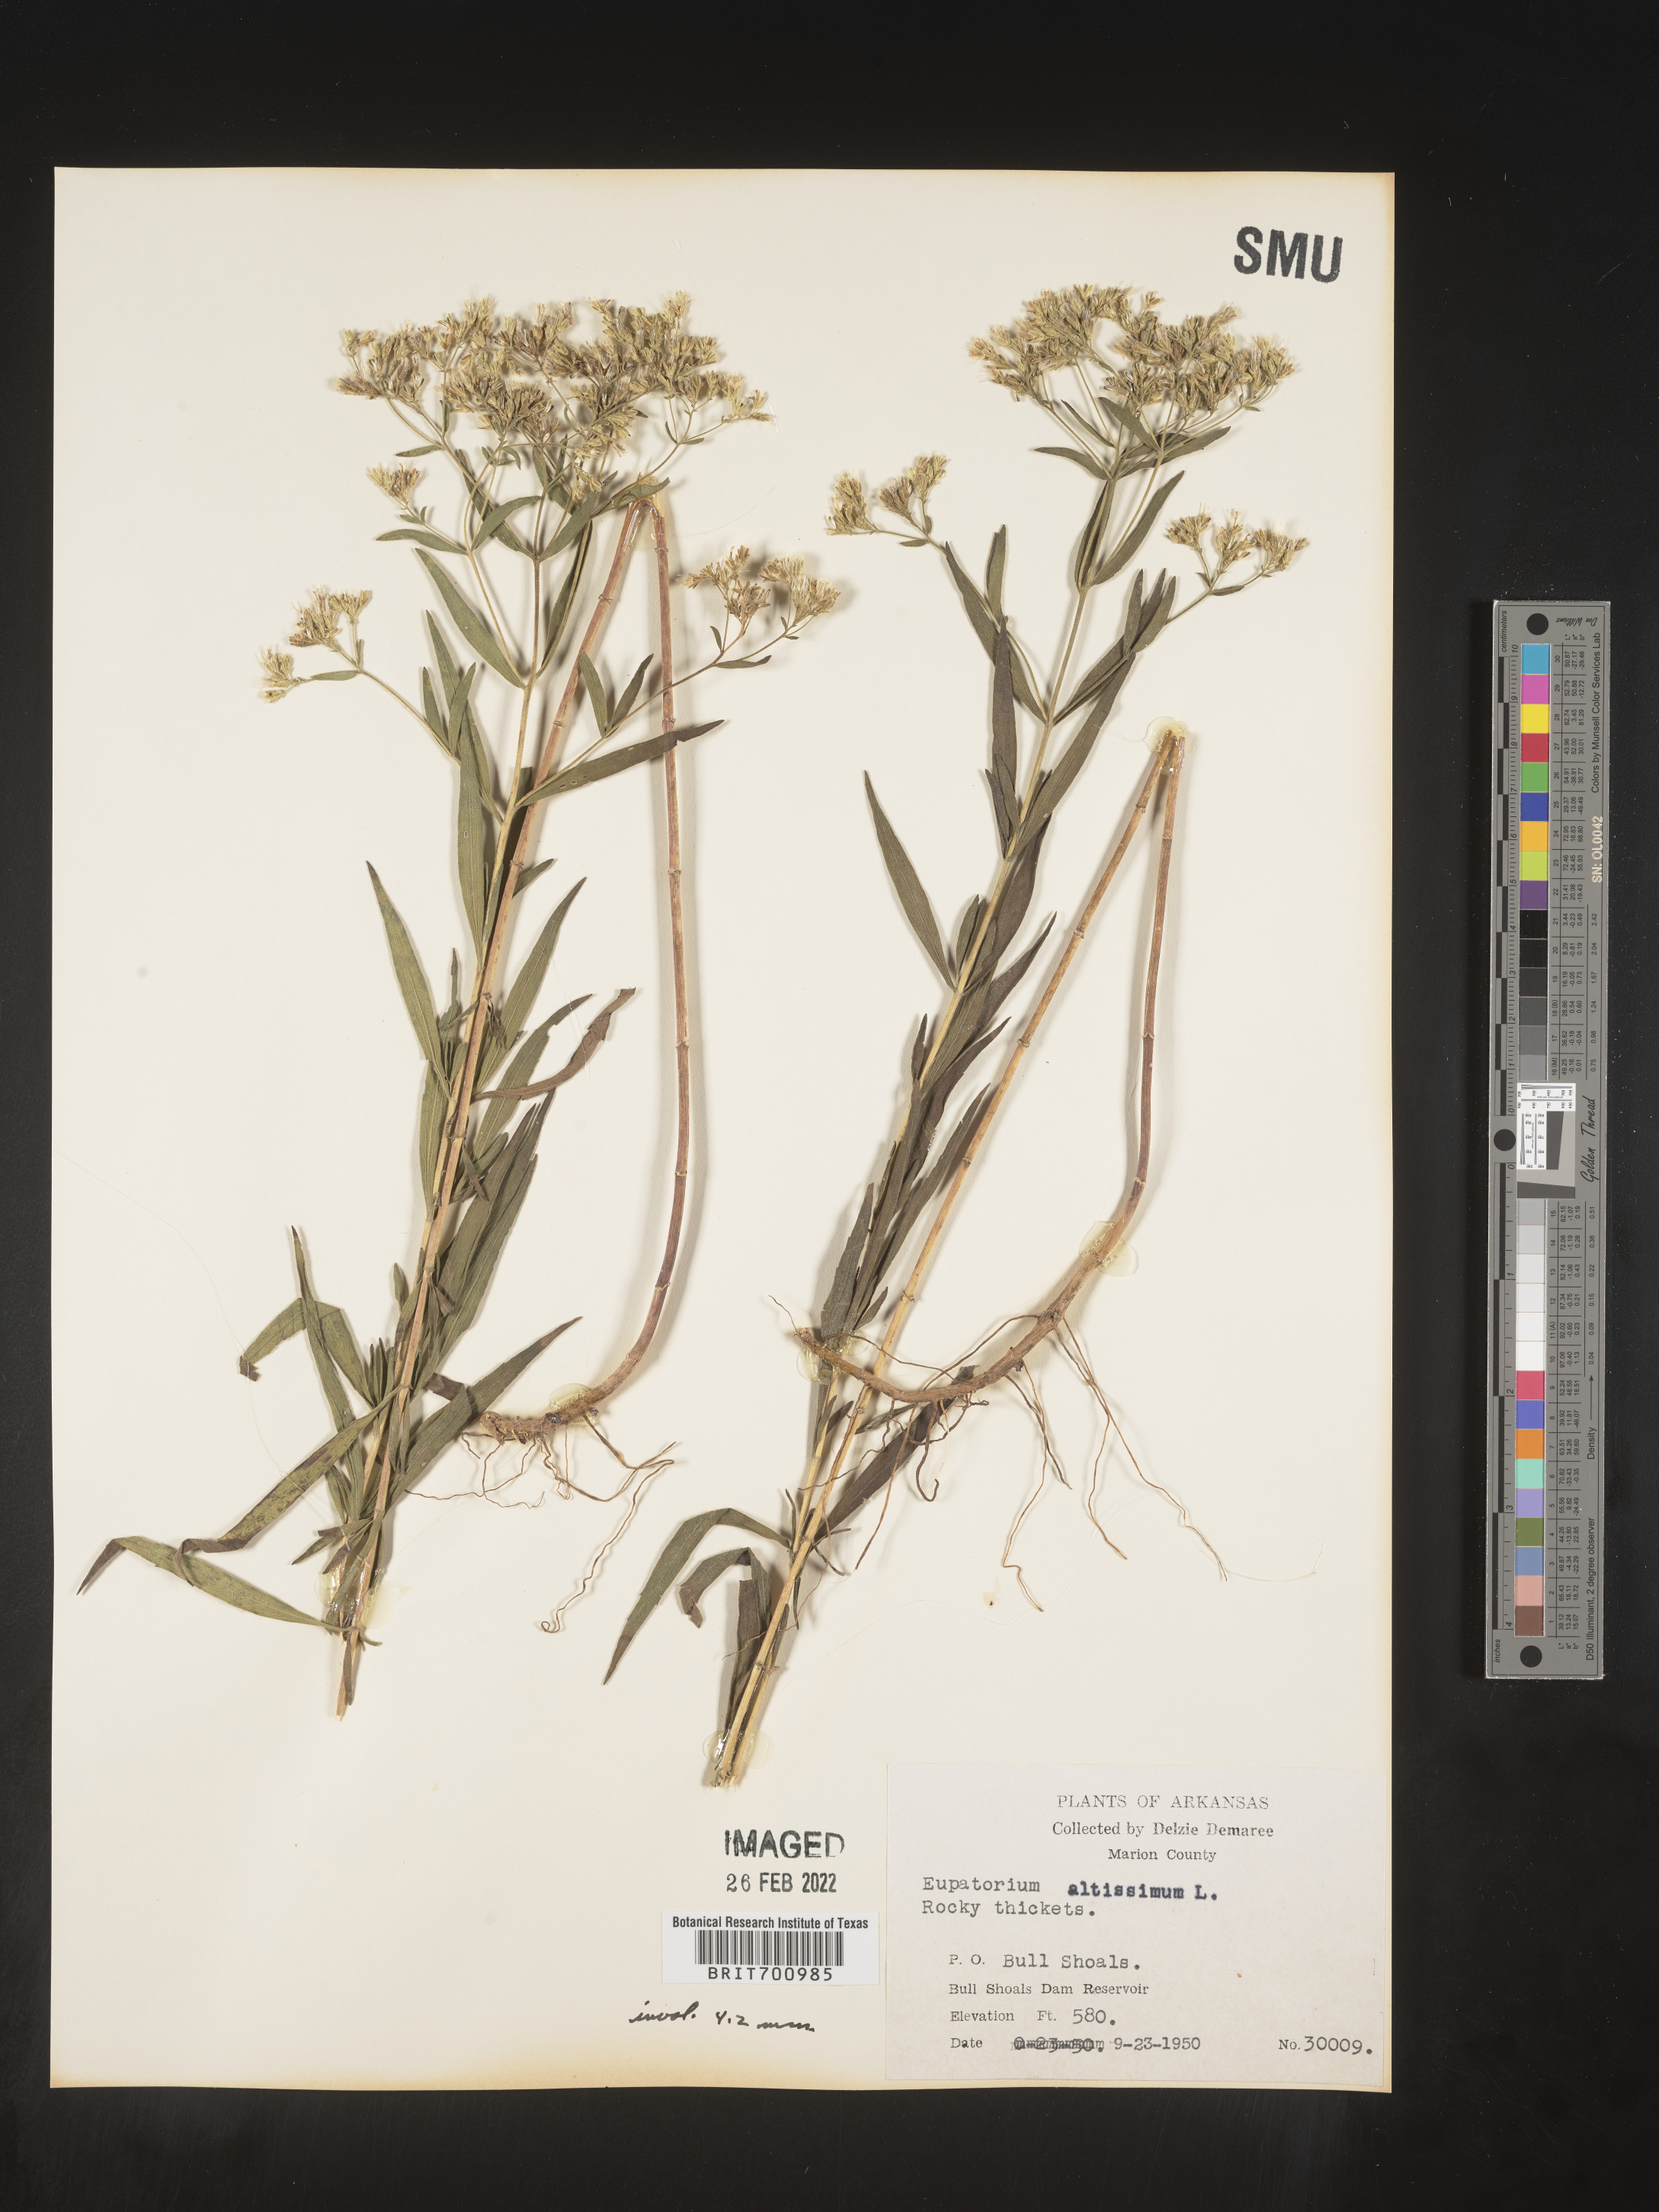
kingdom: Plantae
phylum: Tracheophyta
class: Magnoliopsida
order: Asterales
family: Asteraceae
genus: Eupatorium
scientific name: Eupatorium altissimum
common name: Tall thoroughwort
